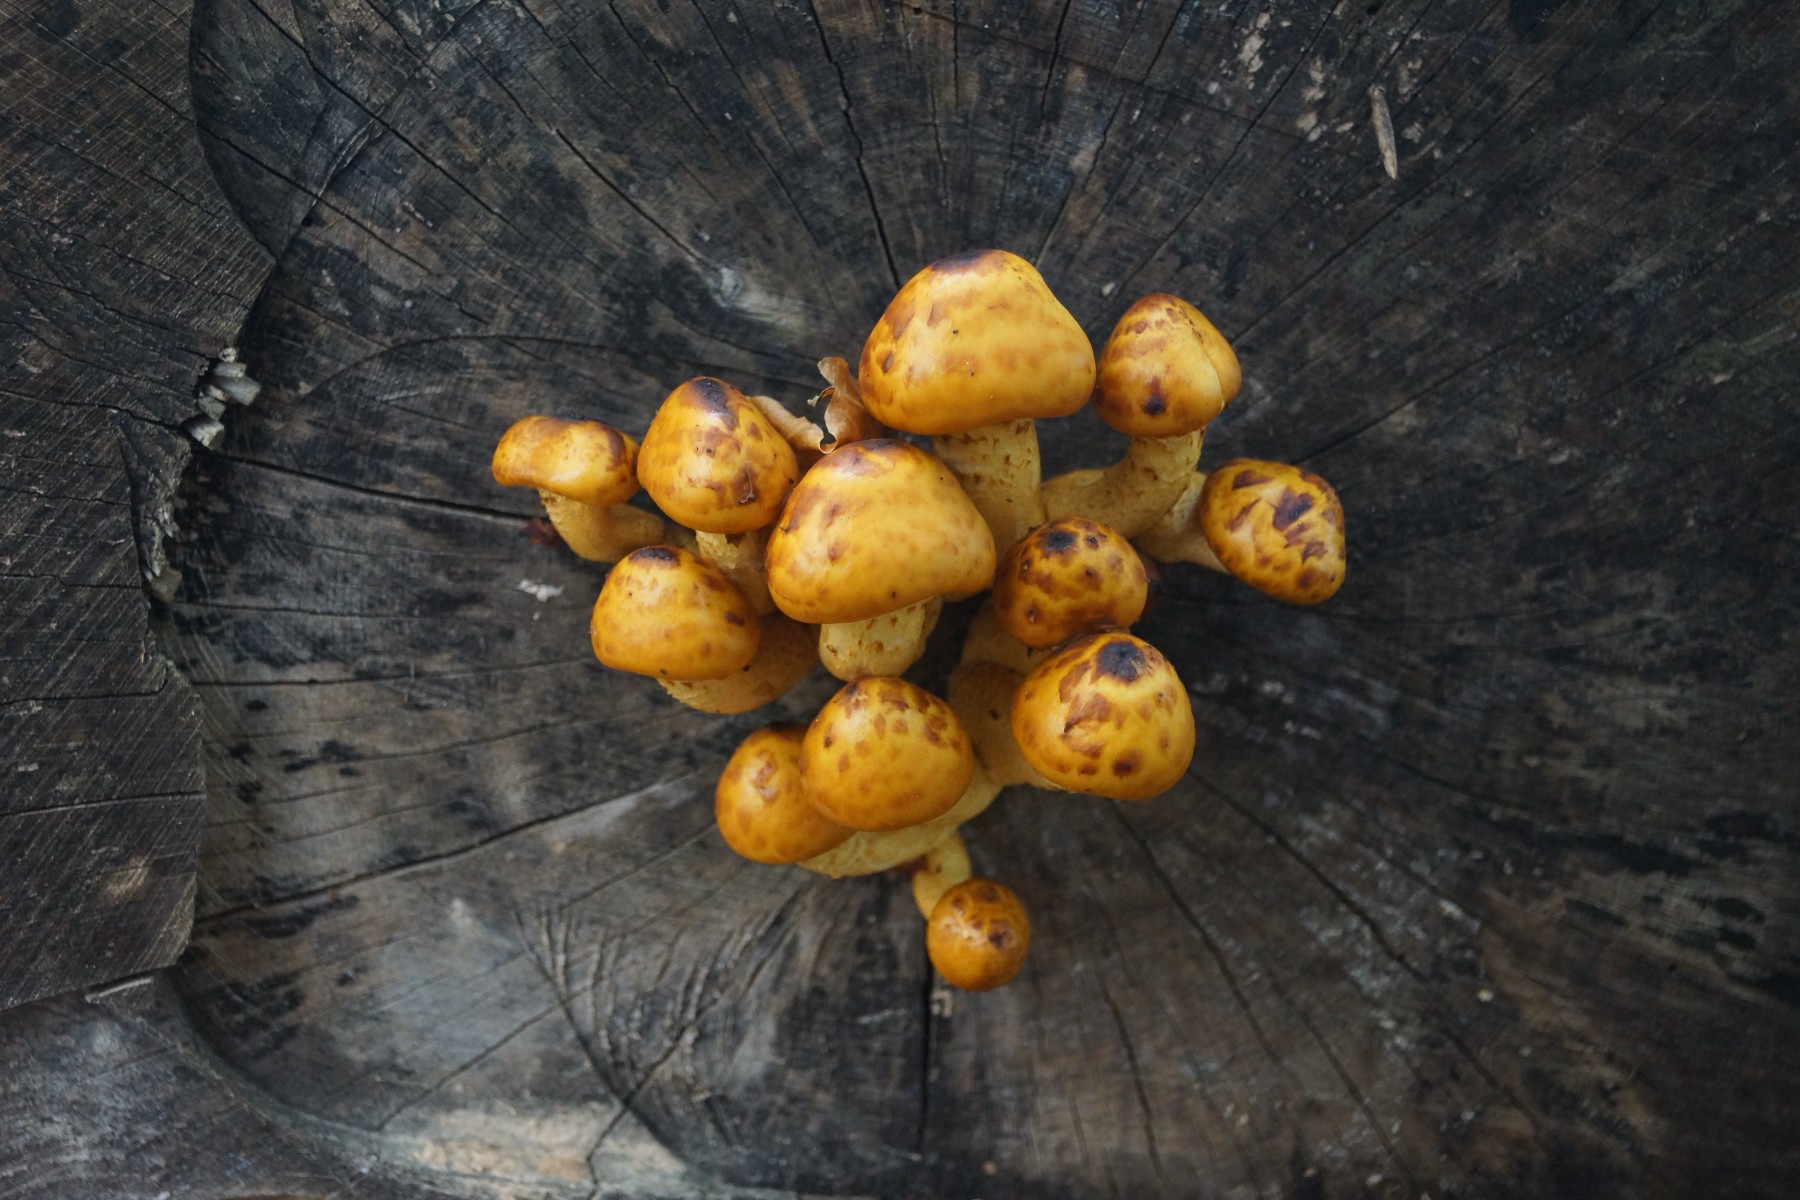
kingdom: Fungi
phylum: Basidiomycota
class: Agaricomycetes
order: Agaricales
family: Strophariaceae
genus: Pholiota
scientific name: Pholiota adiposa
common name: højtsiddende skælhat
